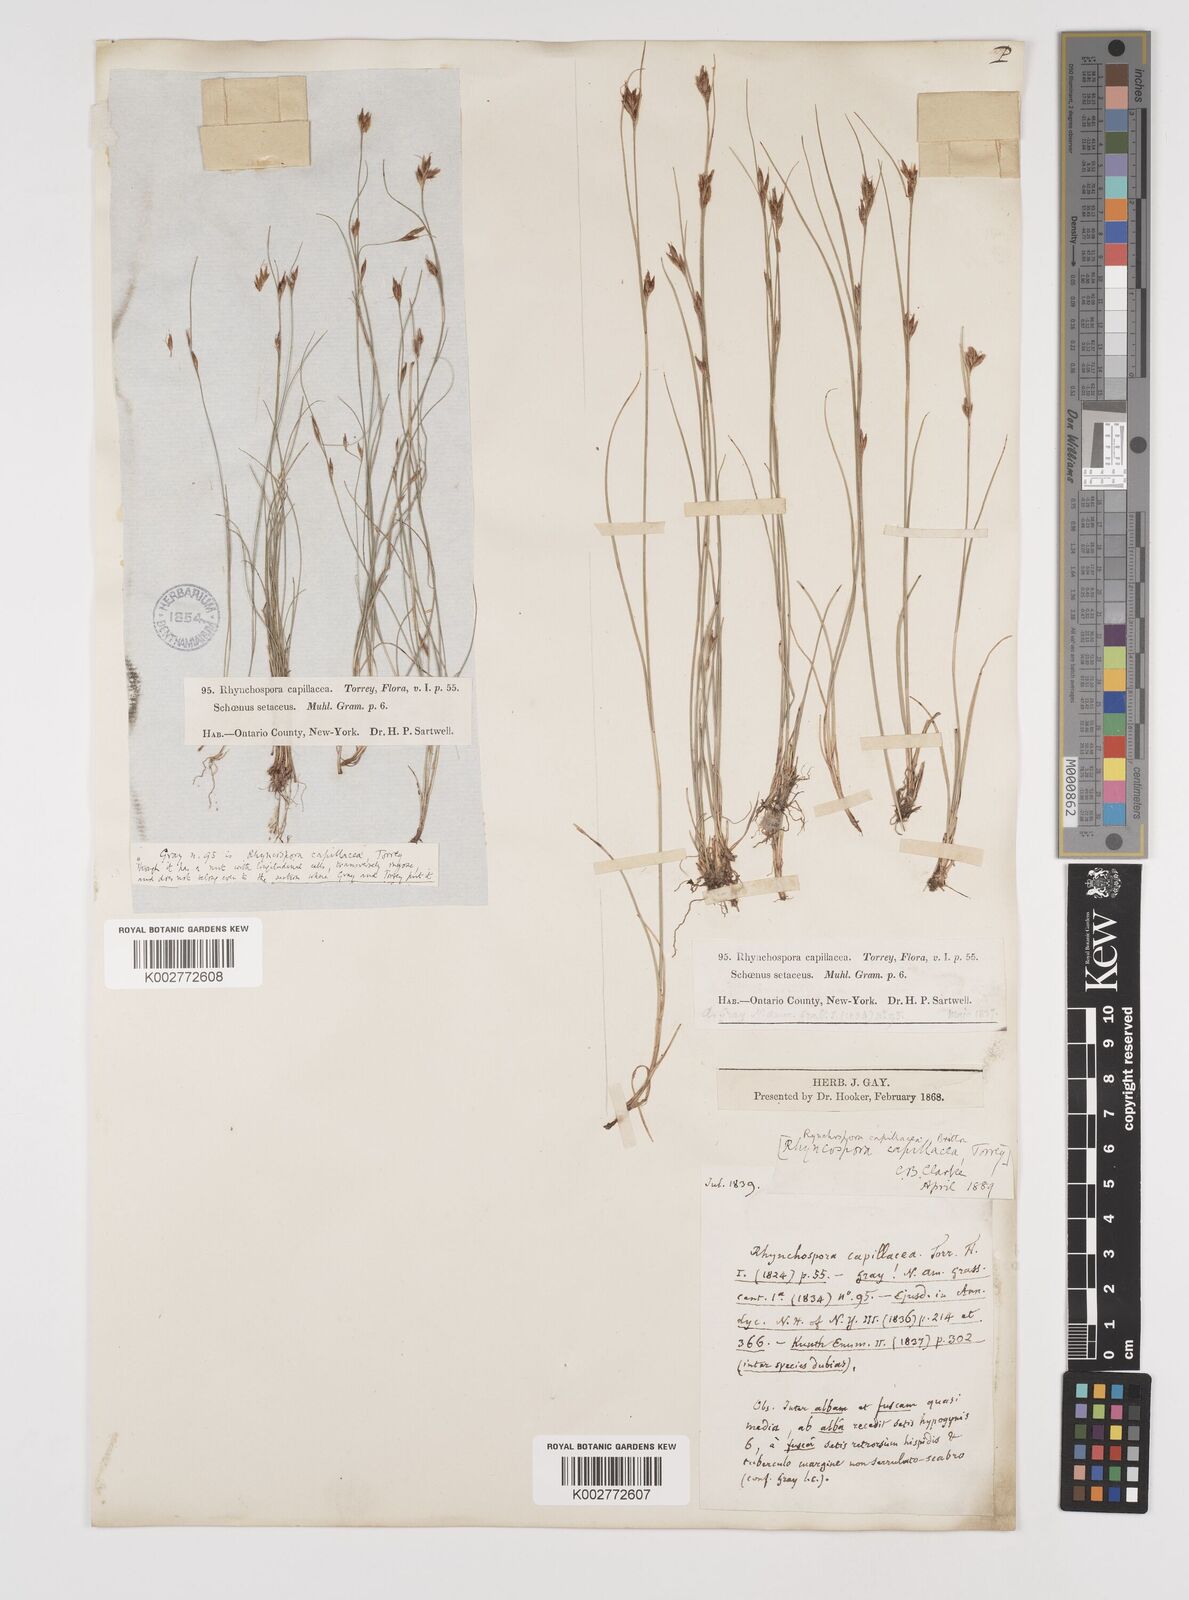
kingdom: Plantae
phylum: Tracheophyta
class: Liliopsida
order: Poales
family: Cyperaceae
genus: Rhynchospora
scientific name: Rhynchospora capillacea
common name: Capillary beakrush
